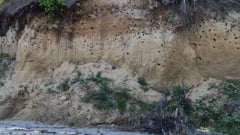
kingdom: Animalia
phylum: Chordata
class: Aves
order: Passeriformes
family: Hirundinidae
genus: Riparia
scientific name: Riparia riparia
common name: Sand martin
